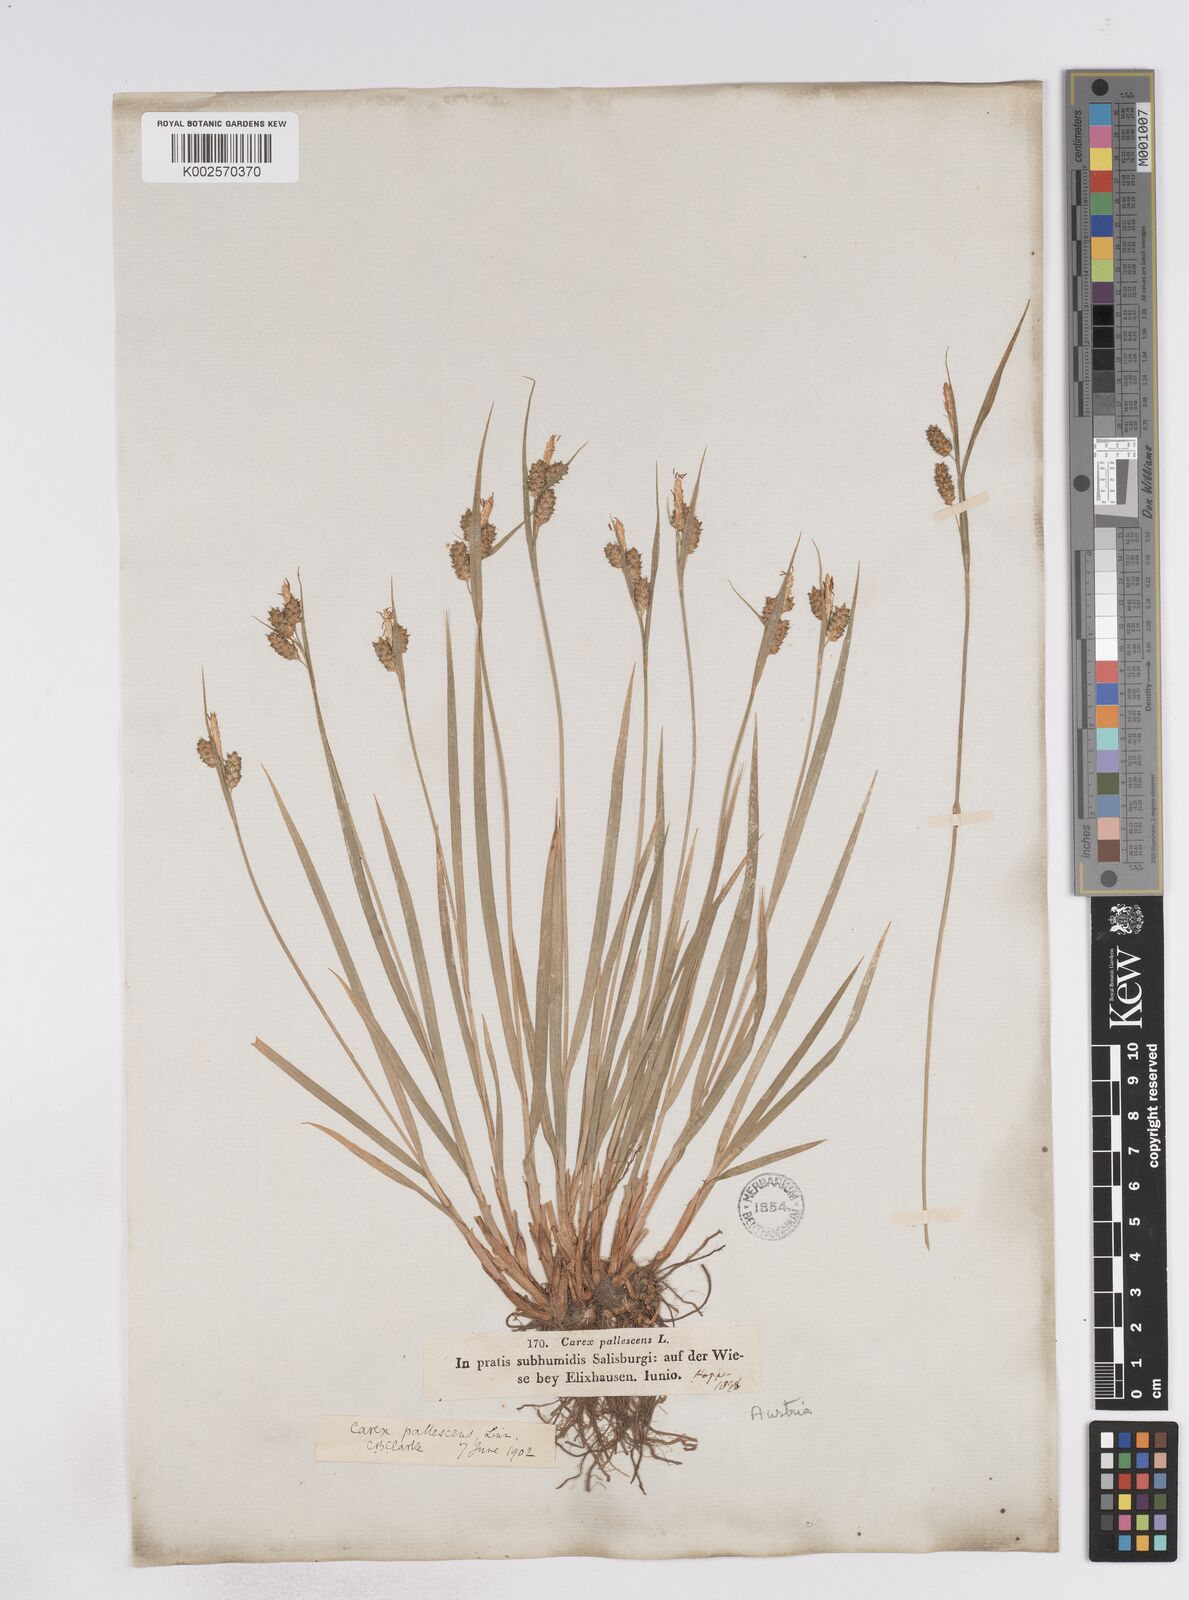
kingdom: Plantae
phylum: Tracheophyta
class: Liliopsida
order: Poales
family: Cyperaceae
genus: Carex
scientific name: Carex pallescens
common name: Pale sedge
